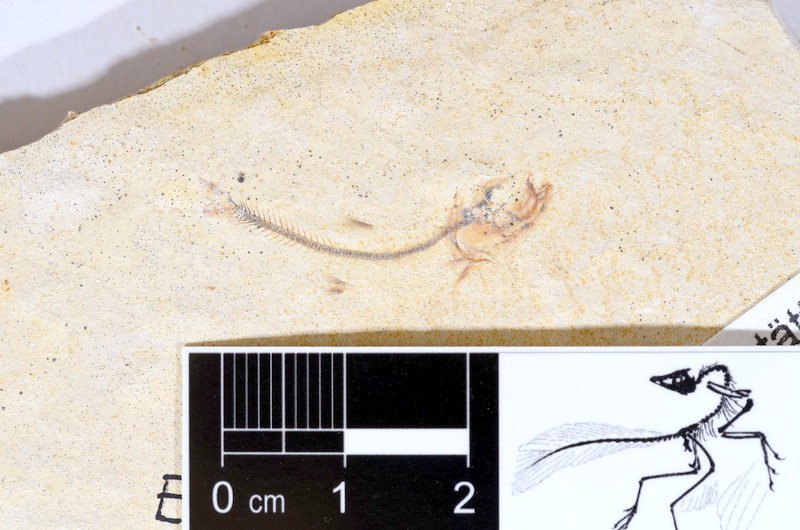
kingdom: Animalia
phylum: Chordata
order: Salmoniformes
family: Orthogonikleithridae
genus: Orthogonikleithrus
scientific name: Orthogonikleithrus hoelli
